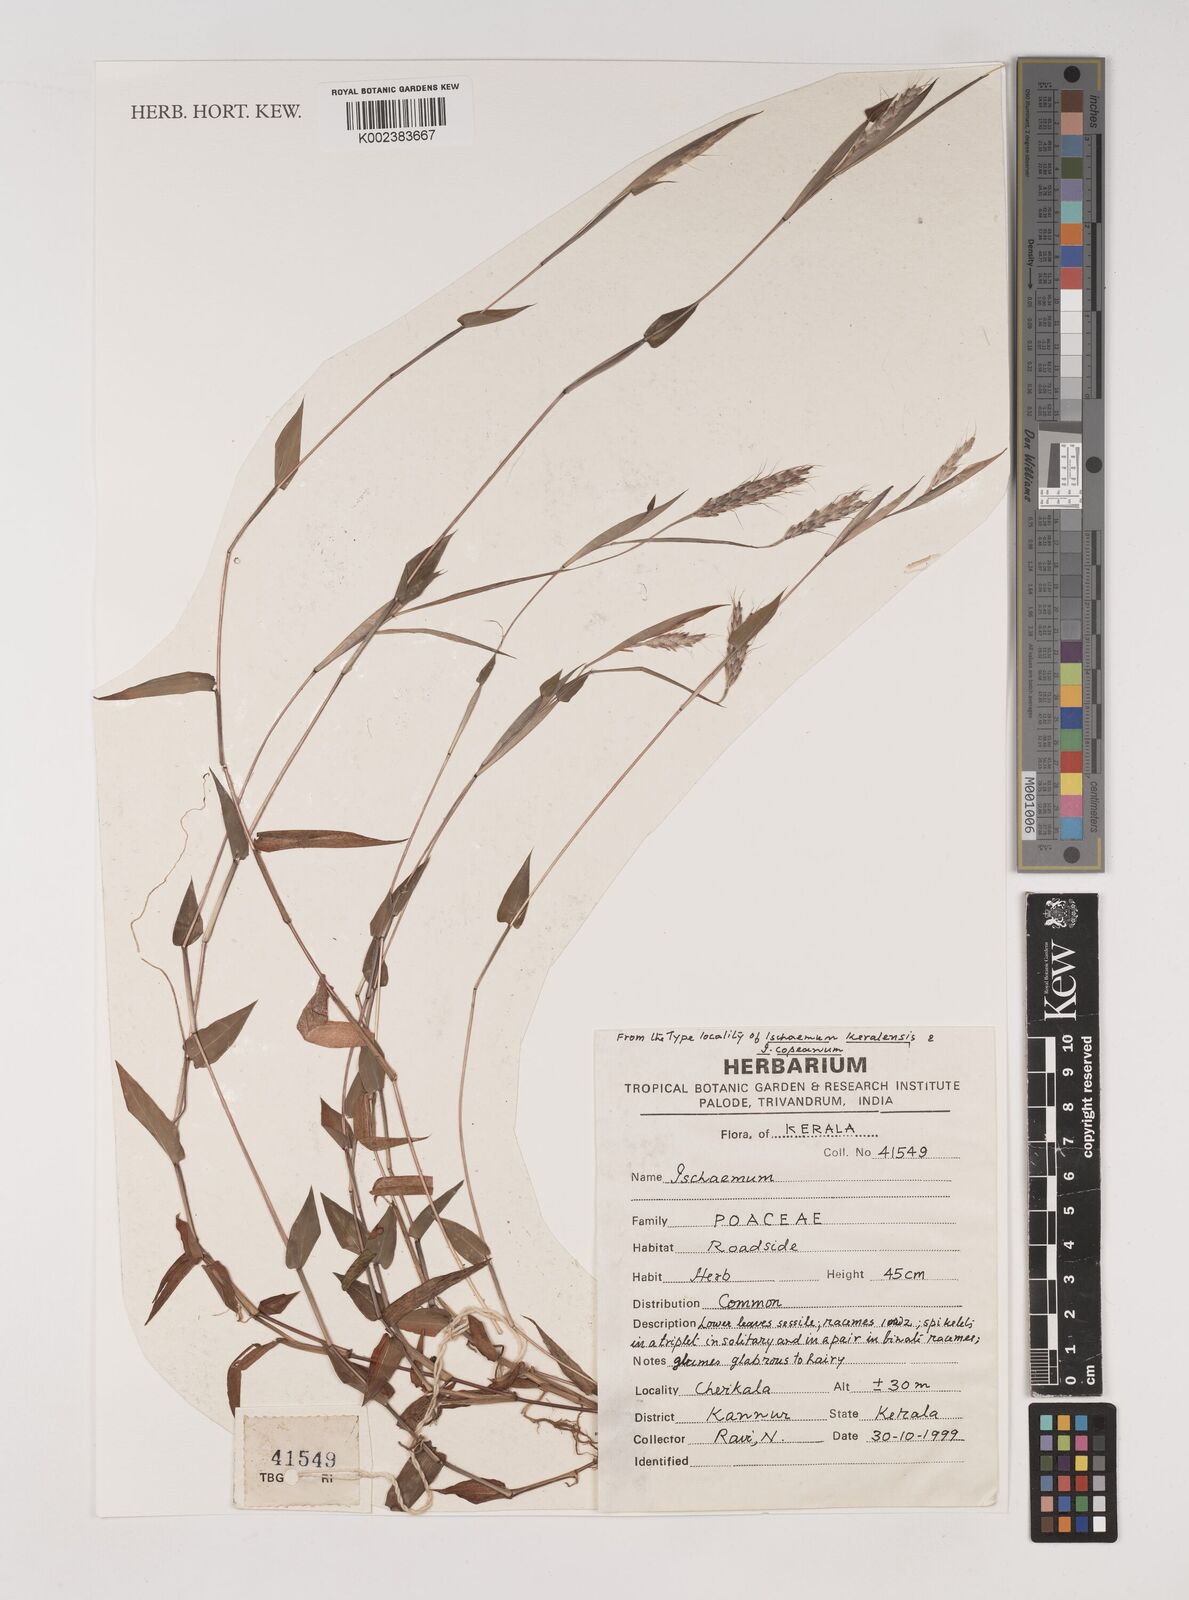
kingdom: Plantae
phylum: Tracheophyta
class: Liliopsida
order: Poales
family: Poaceae
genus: Ischaemum
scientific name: Ischaemum
